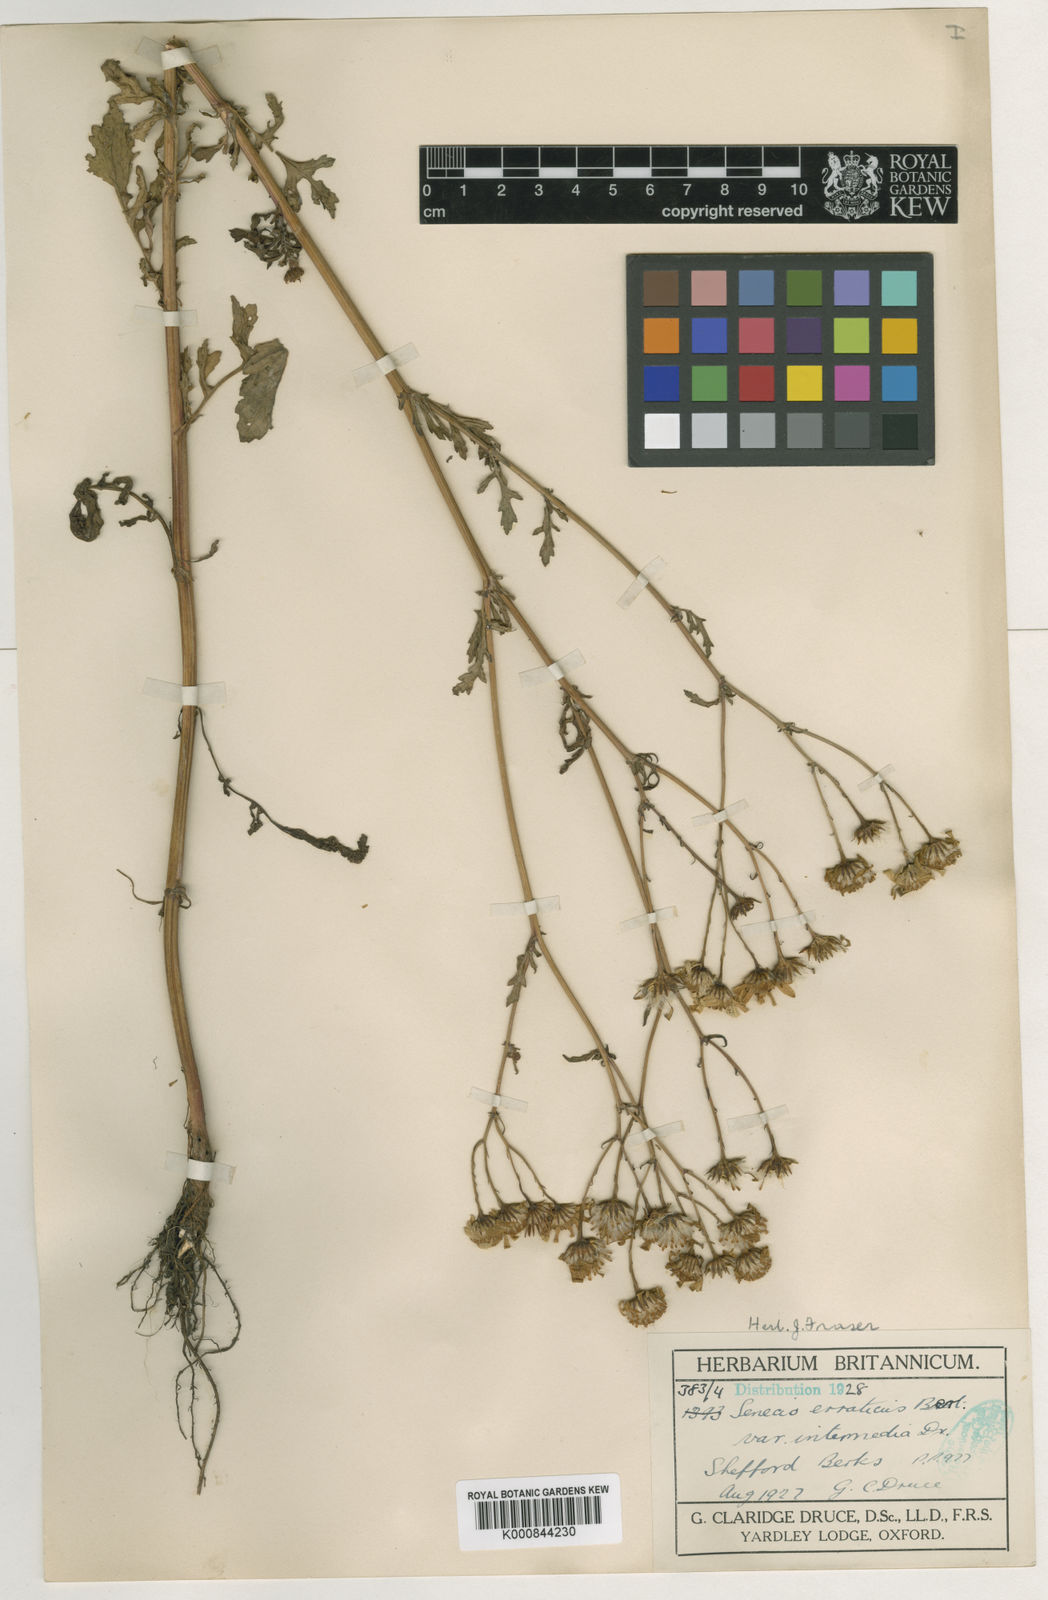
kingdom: Plantae
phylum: Tracheophyta
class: Magnoliopsida
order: Asterales
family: Asteraceae
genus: Jacobaea
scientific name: Jacobaea aquatica
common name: Water ragwort
